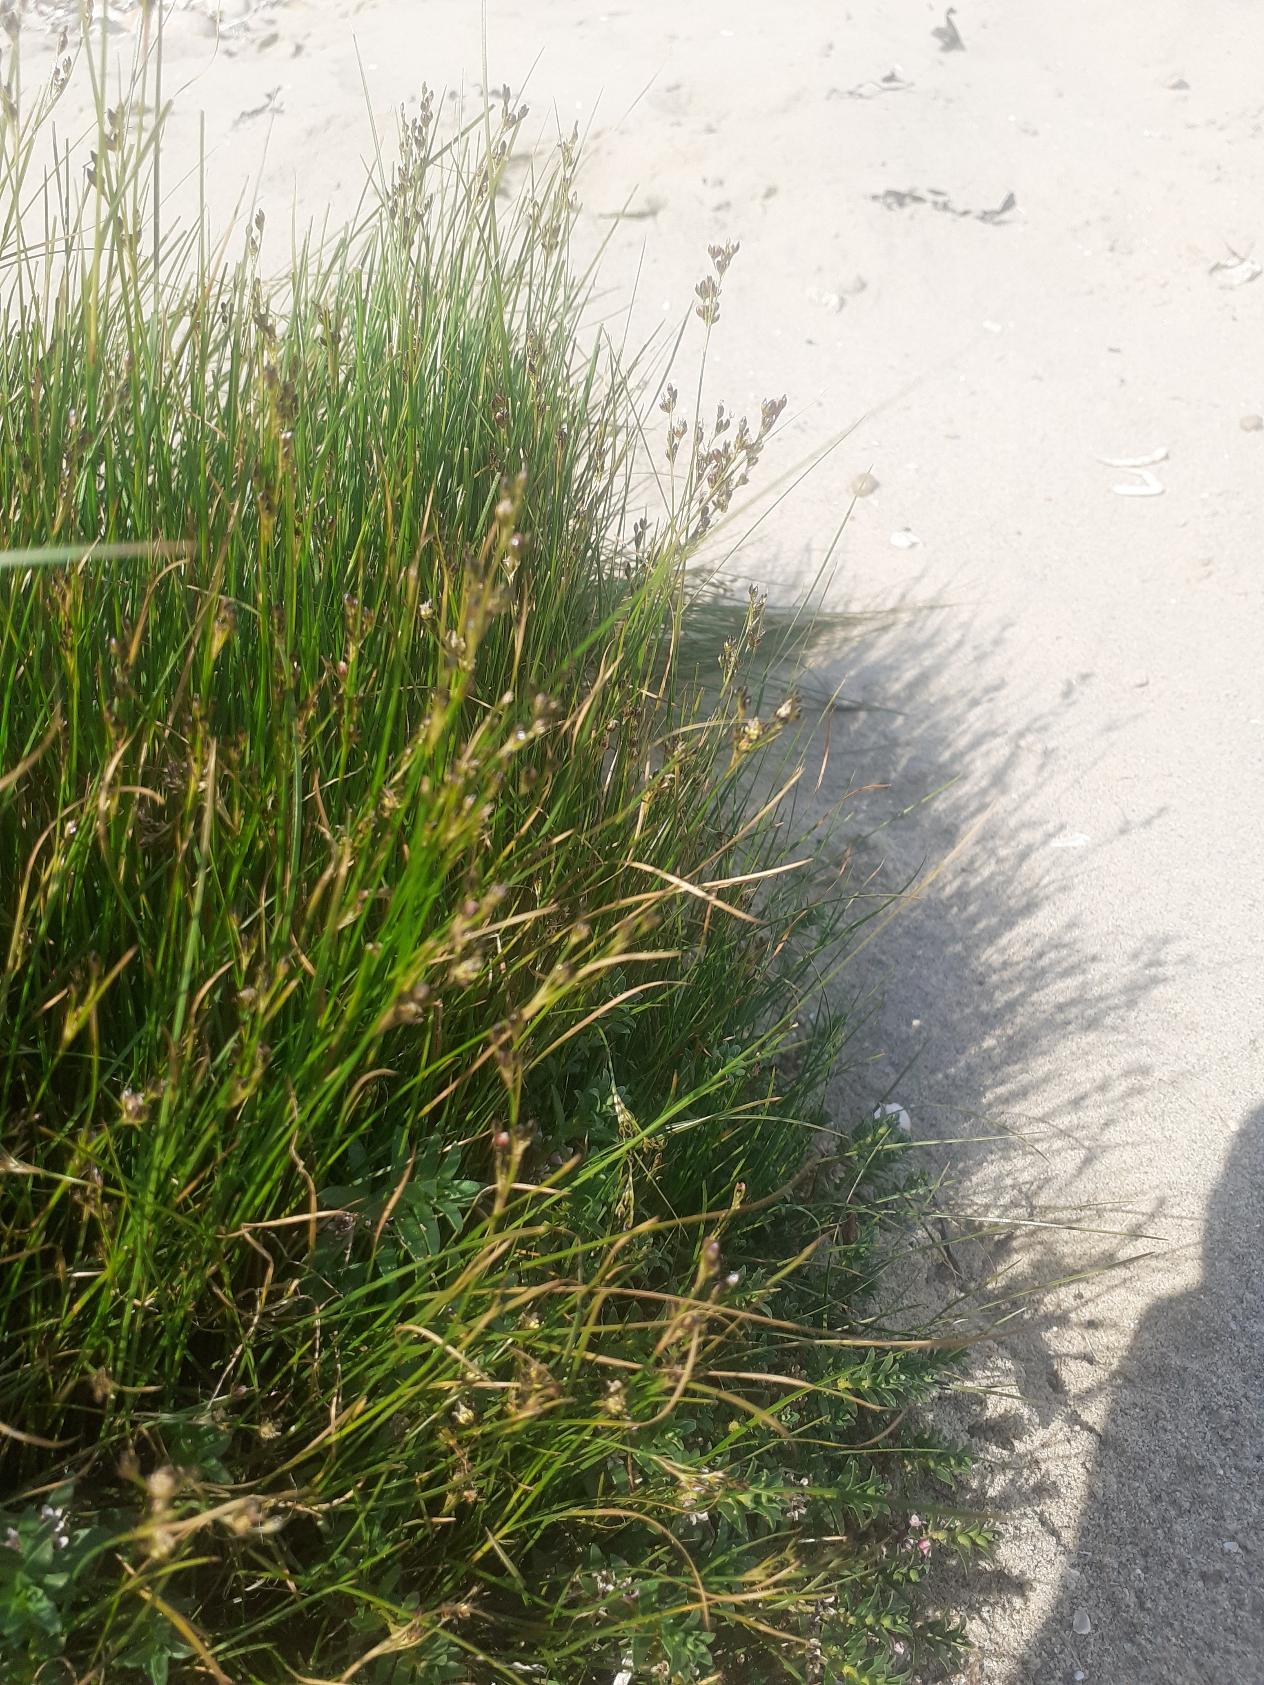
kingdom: Plantae
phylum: Tracheophyta
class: Liliopsida
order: Poales
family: Juncaceae
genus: Juncus
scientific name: Juncus gerardi
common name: Harril
